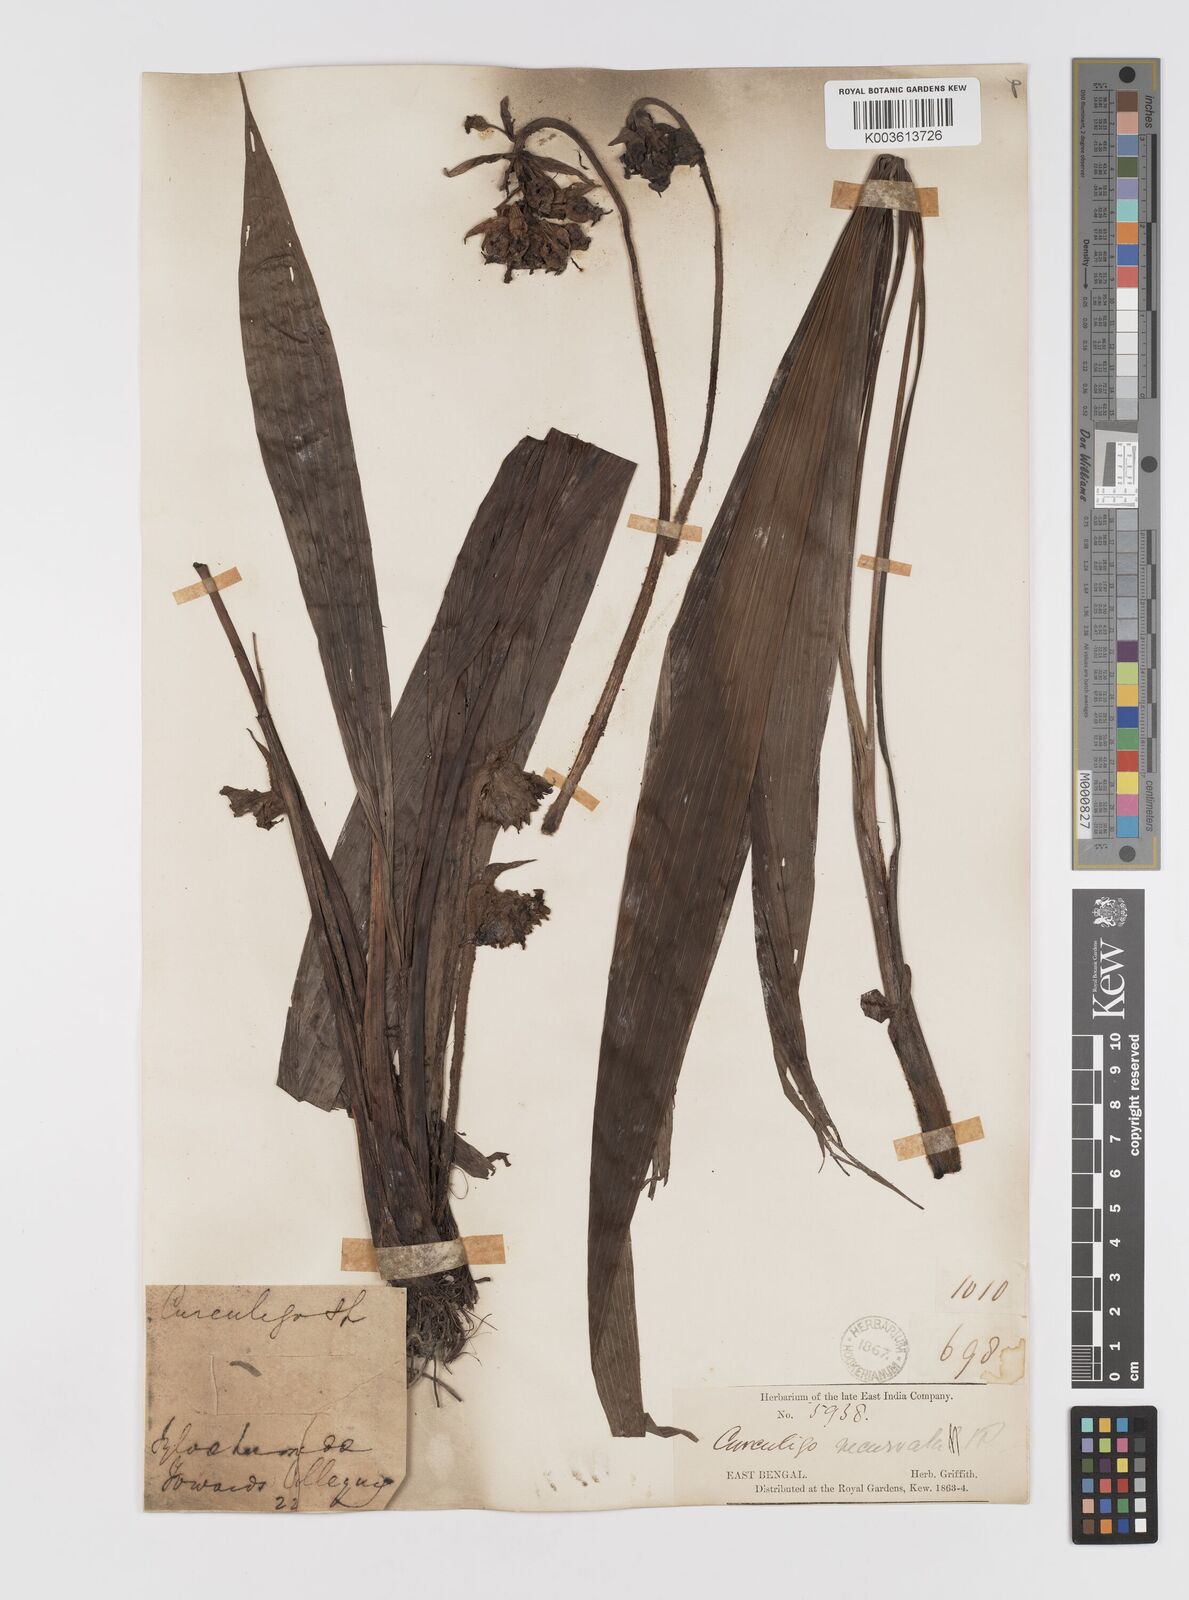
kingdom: Plantae
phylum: Tracheophyta
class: Liliopsida
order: Asparagales
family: Hypoxidaceae
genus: Curculigo
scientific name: Curculigo capitulata
